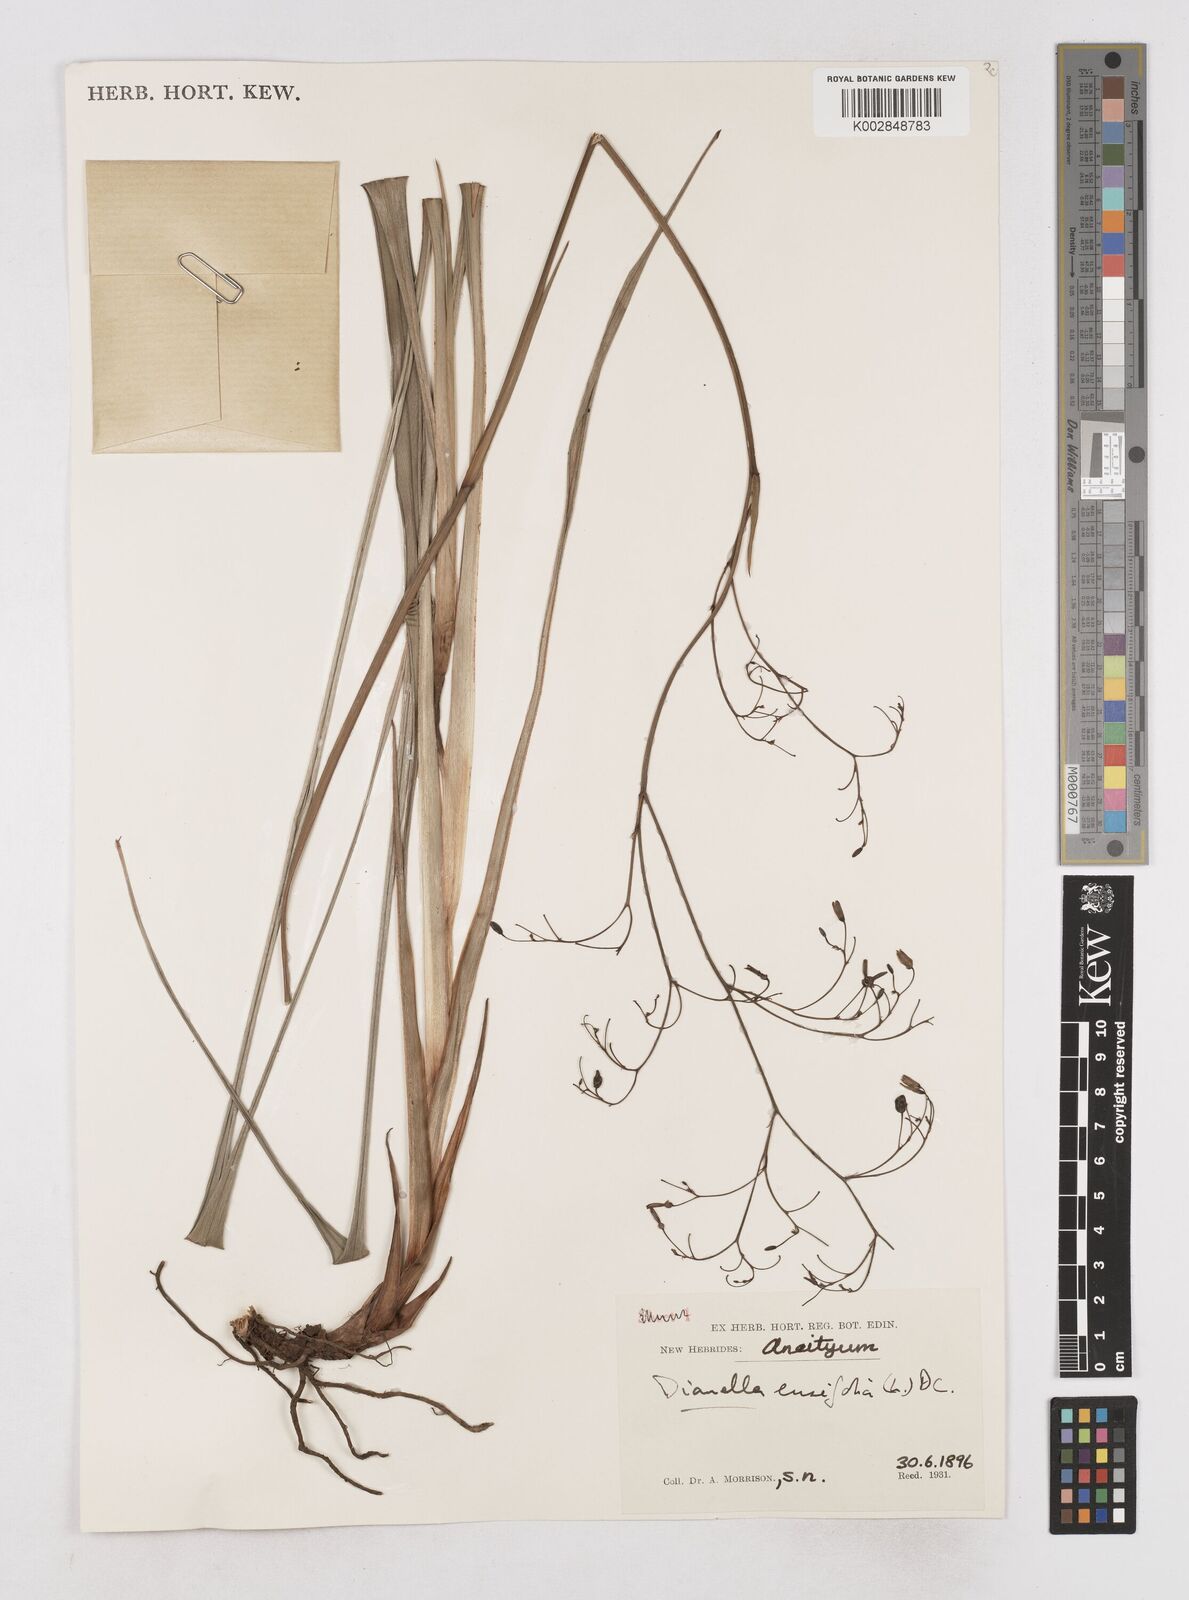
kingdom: Plantae
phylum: Tracheophyta
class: Liliopsida
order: Asparagales
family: Asphodelaceae
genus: Dianella
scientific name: Dianella ensifolia
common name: New zealand lilyplant
